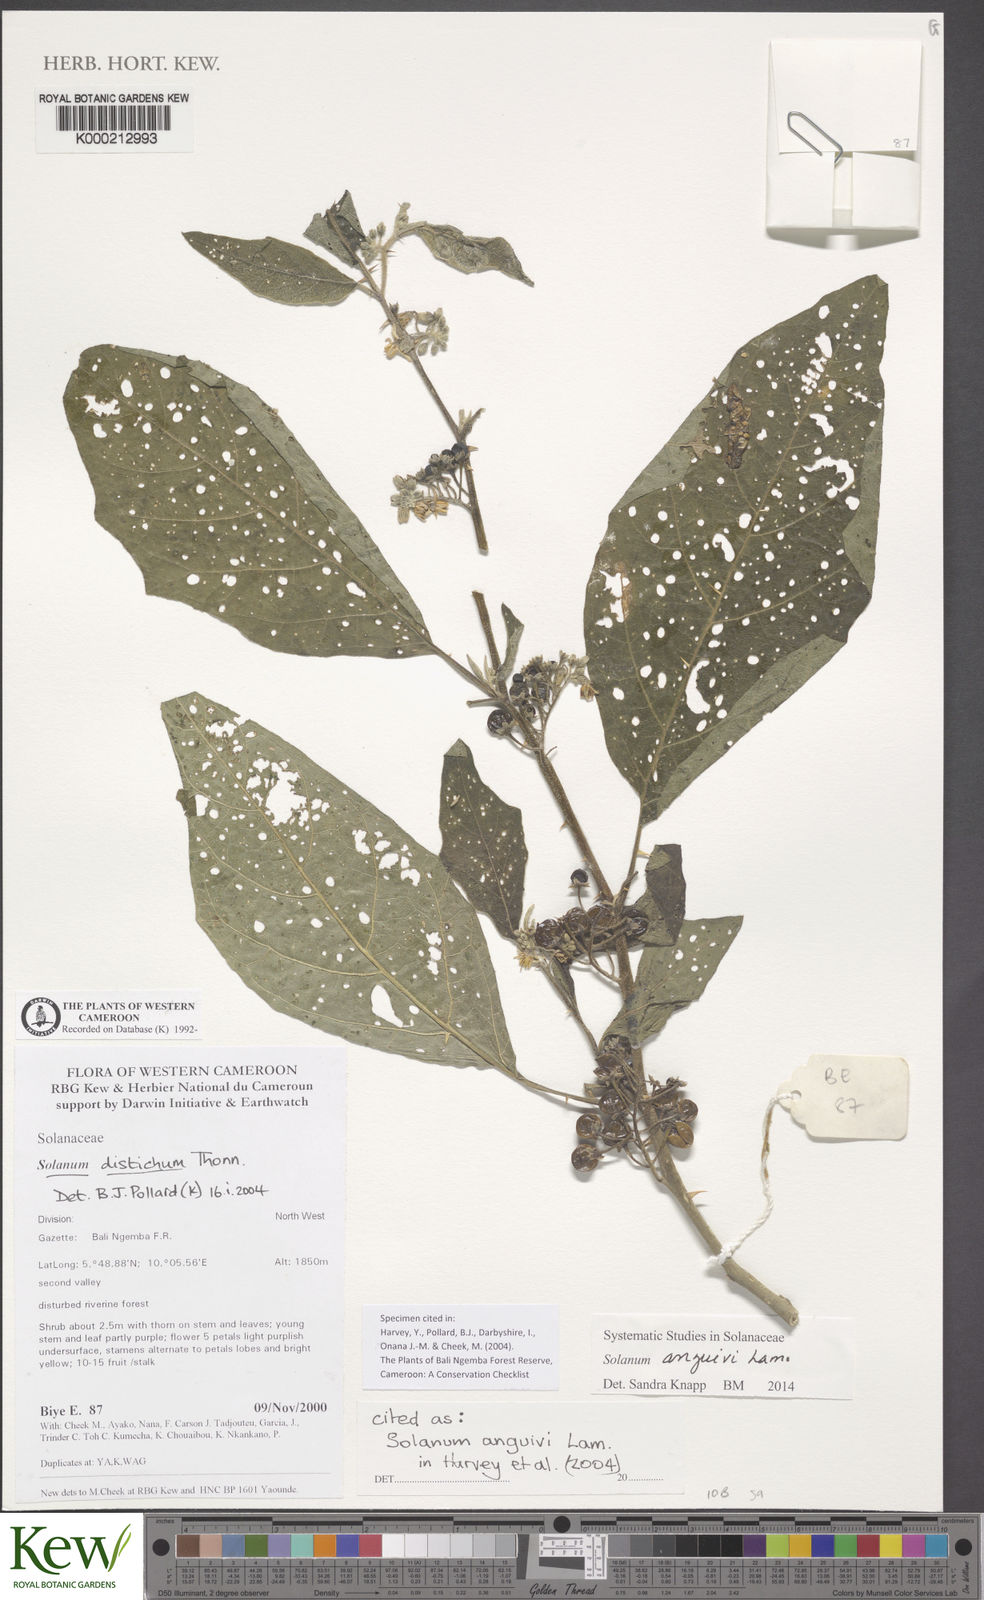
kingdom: Plantae
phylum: Tracheophyta
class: Magnoliopsida
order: Solanales
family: Solanaceae
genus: Solanum
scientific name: Solanum anguivi
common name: Forest bitterberry
